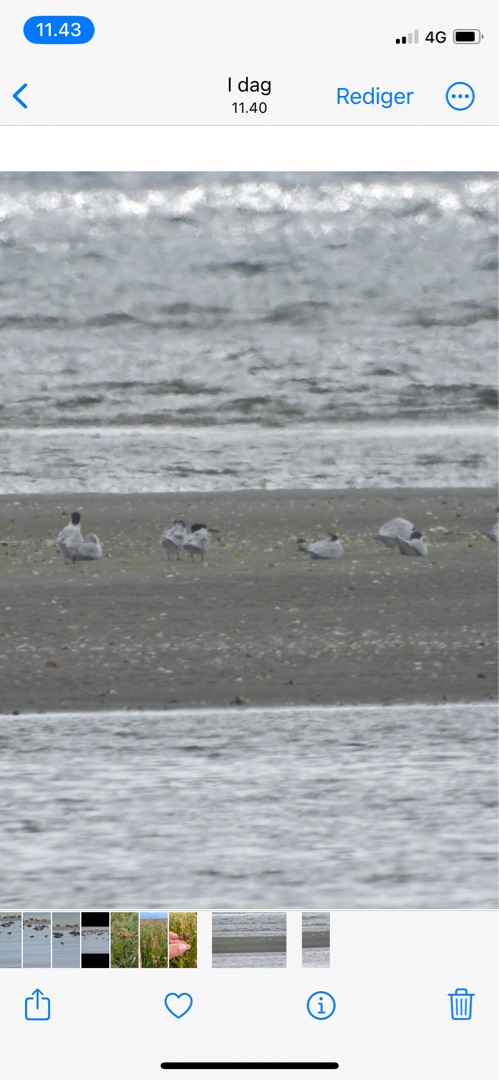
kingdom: Animalia
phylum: Chordata
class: Aves
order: Charadriiformes
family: Laridae
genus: Thalasseus
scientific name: Thalasseus sandvicensis
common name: Splitterne
